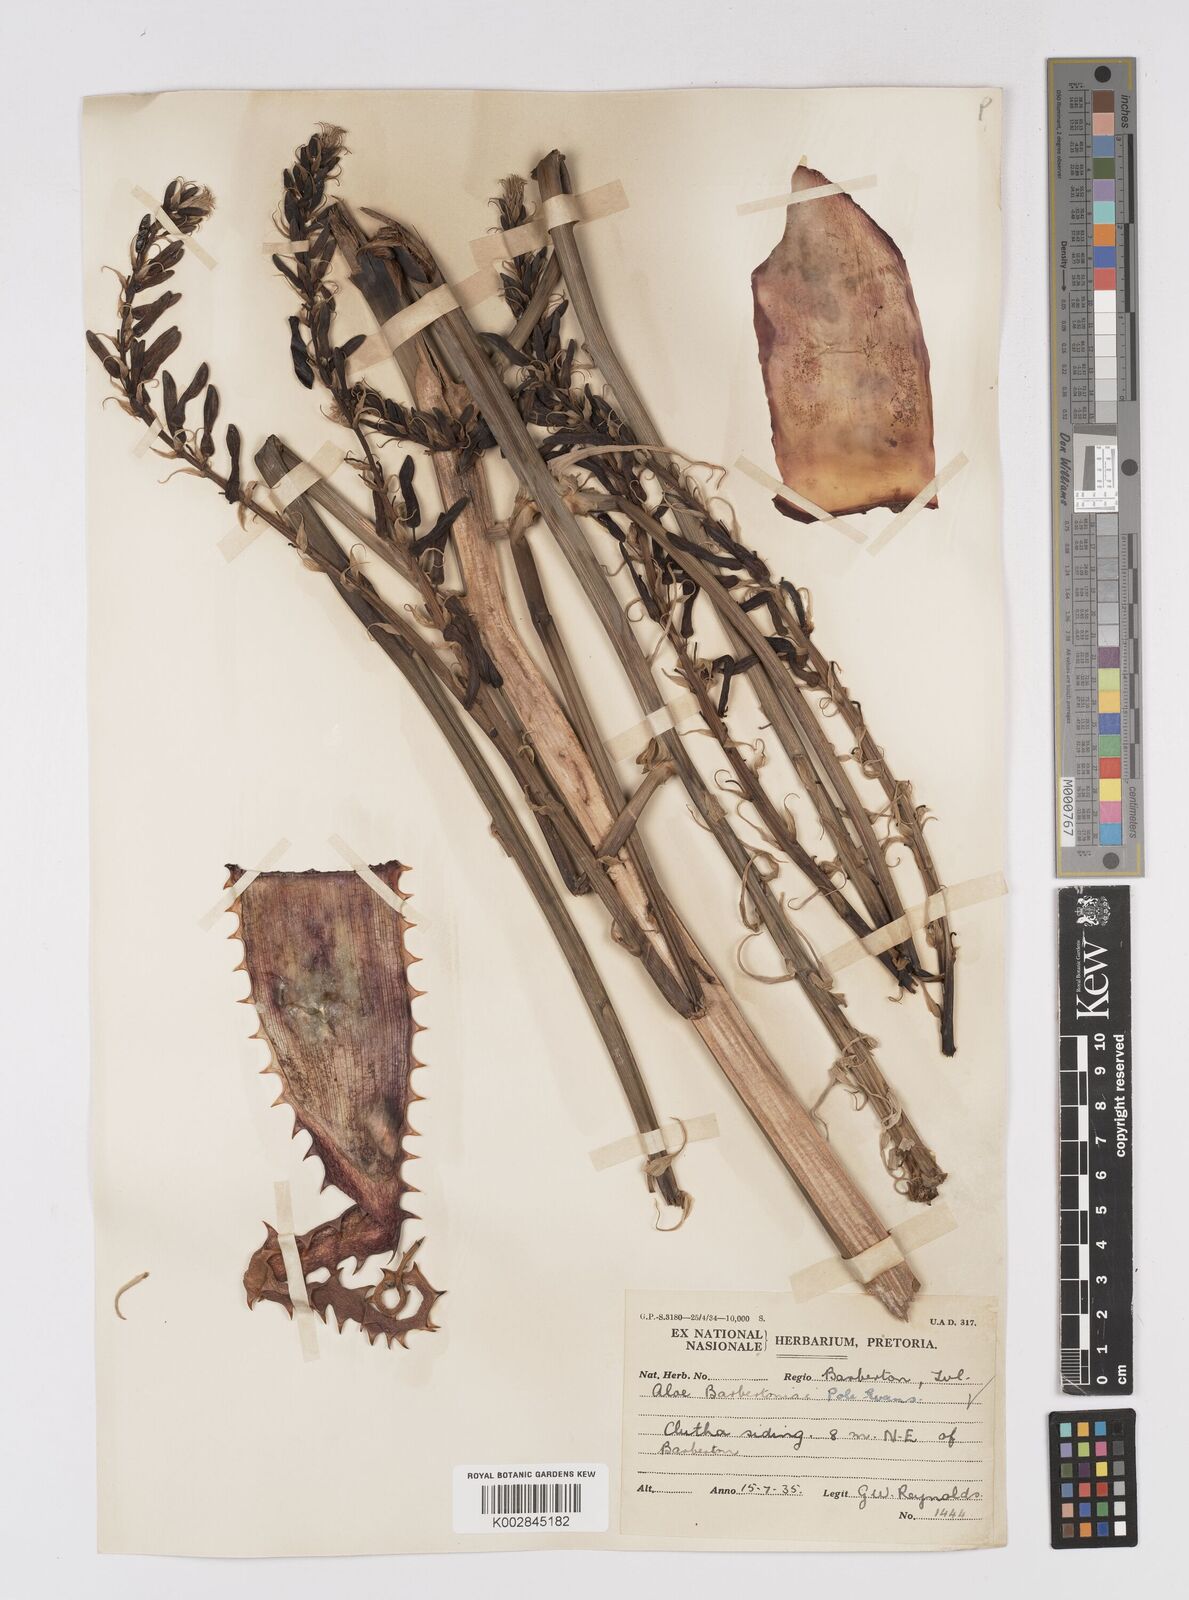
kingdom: Plantae
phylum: Tracheophyta
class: Liliopsida
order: Asparagales
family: Asphodelaceae
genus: Aloe
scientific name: Aloe davyana
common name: Spotted aloe
